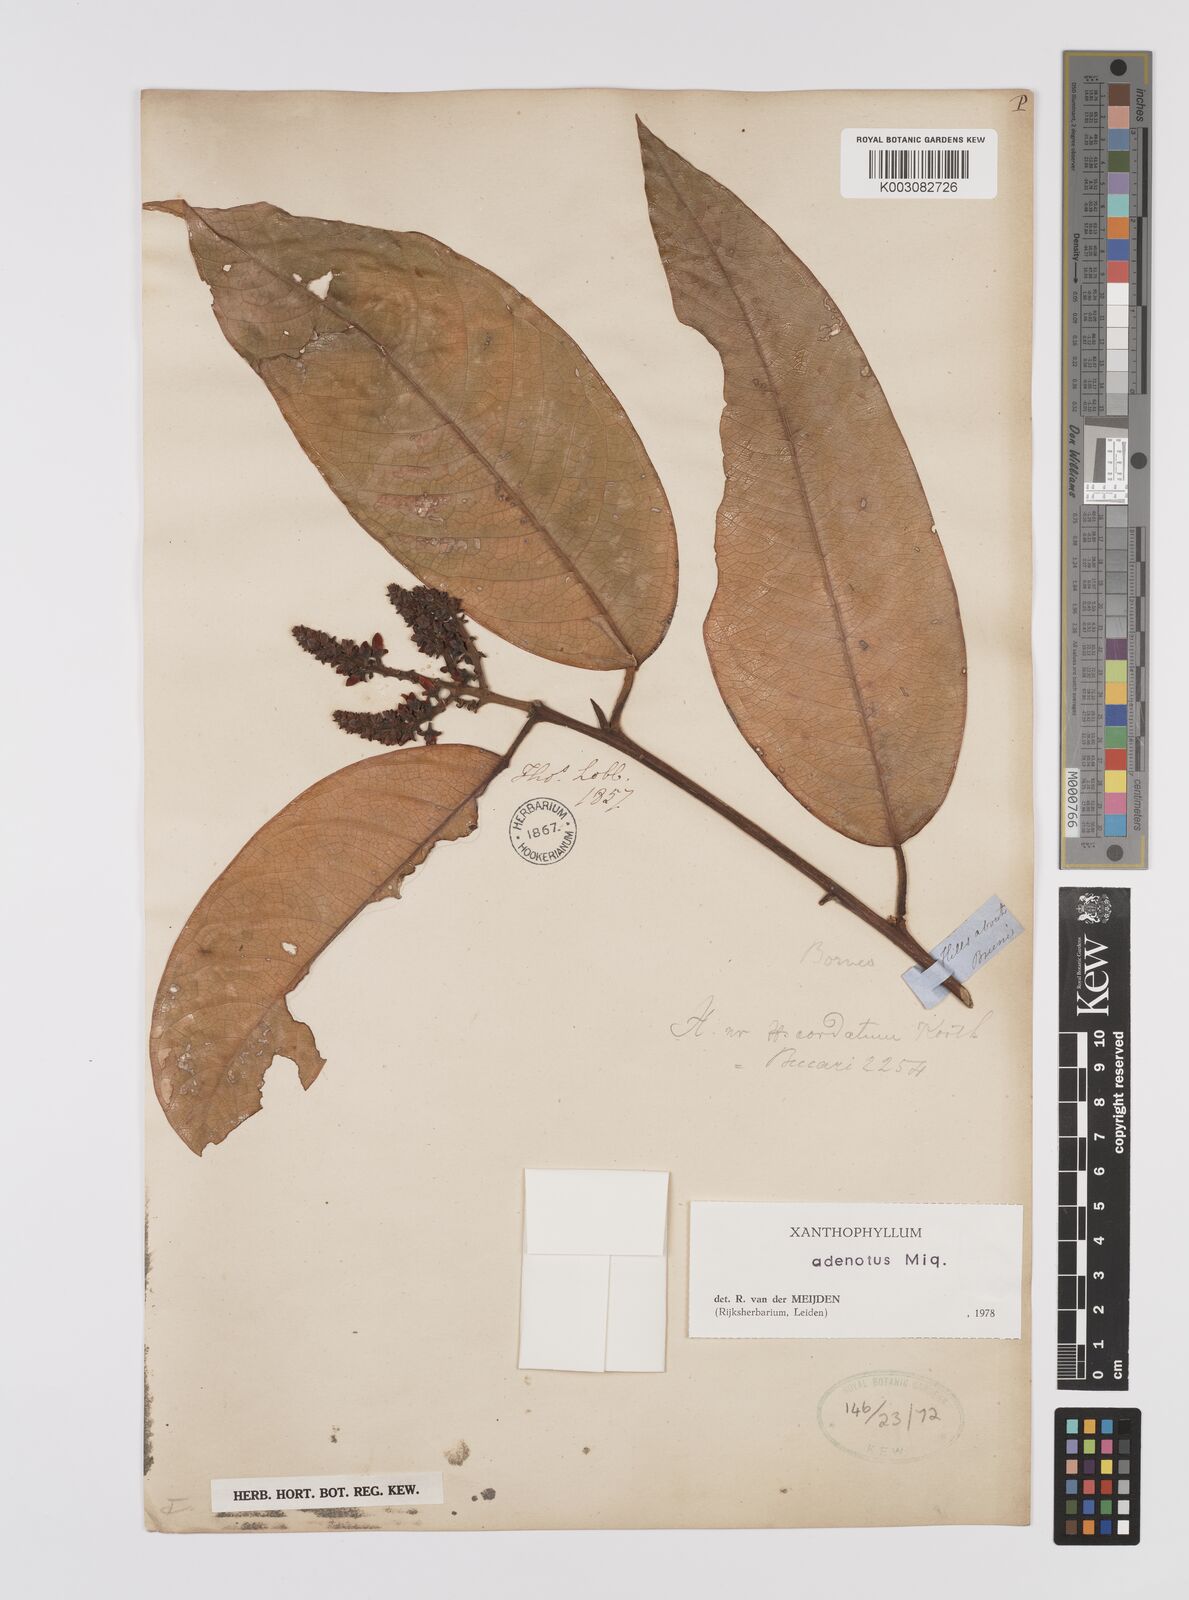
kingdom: Plantae
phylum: Tracheophyta
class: Magnoliopsida
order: Fabales
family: Polygalaceae
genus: Xanthophyllum
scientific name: Xanthophyllum adenotus
